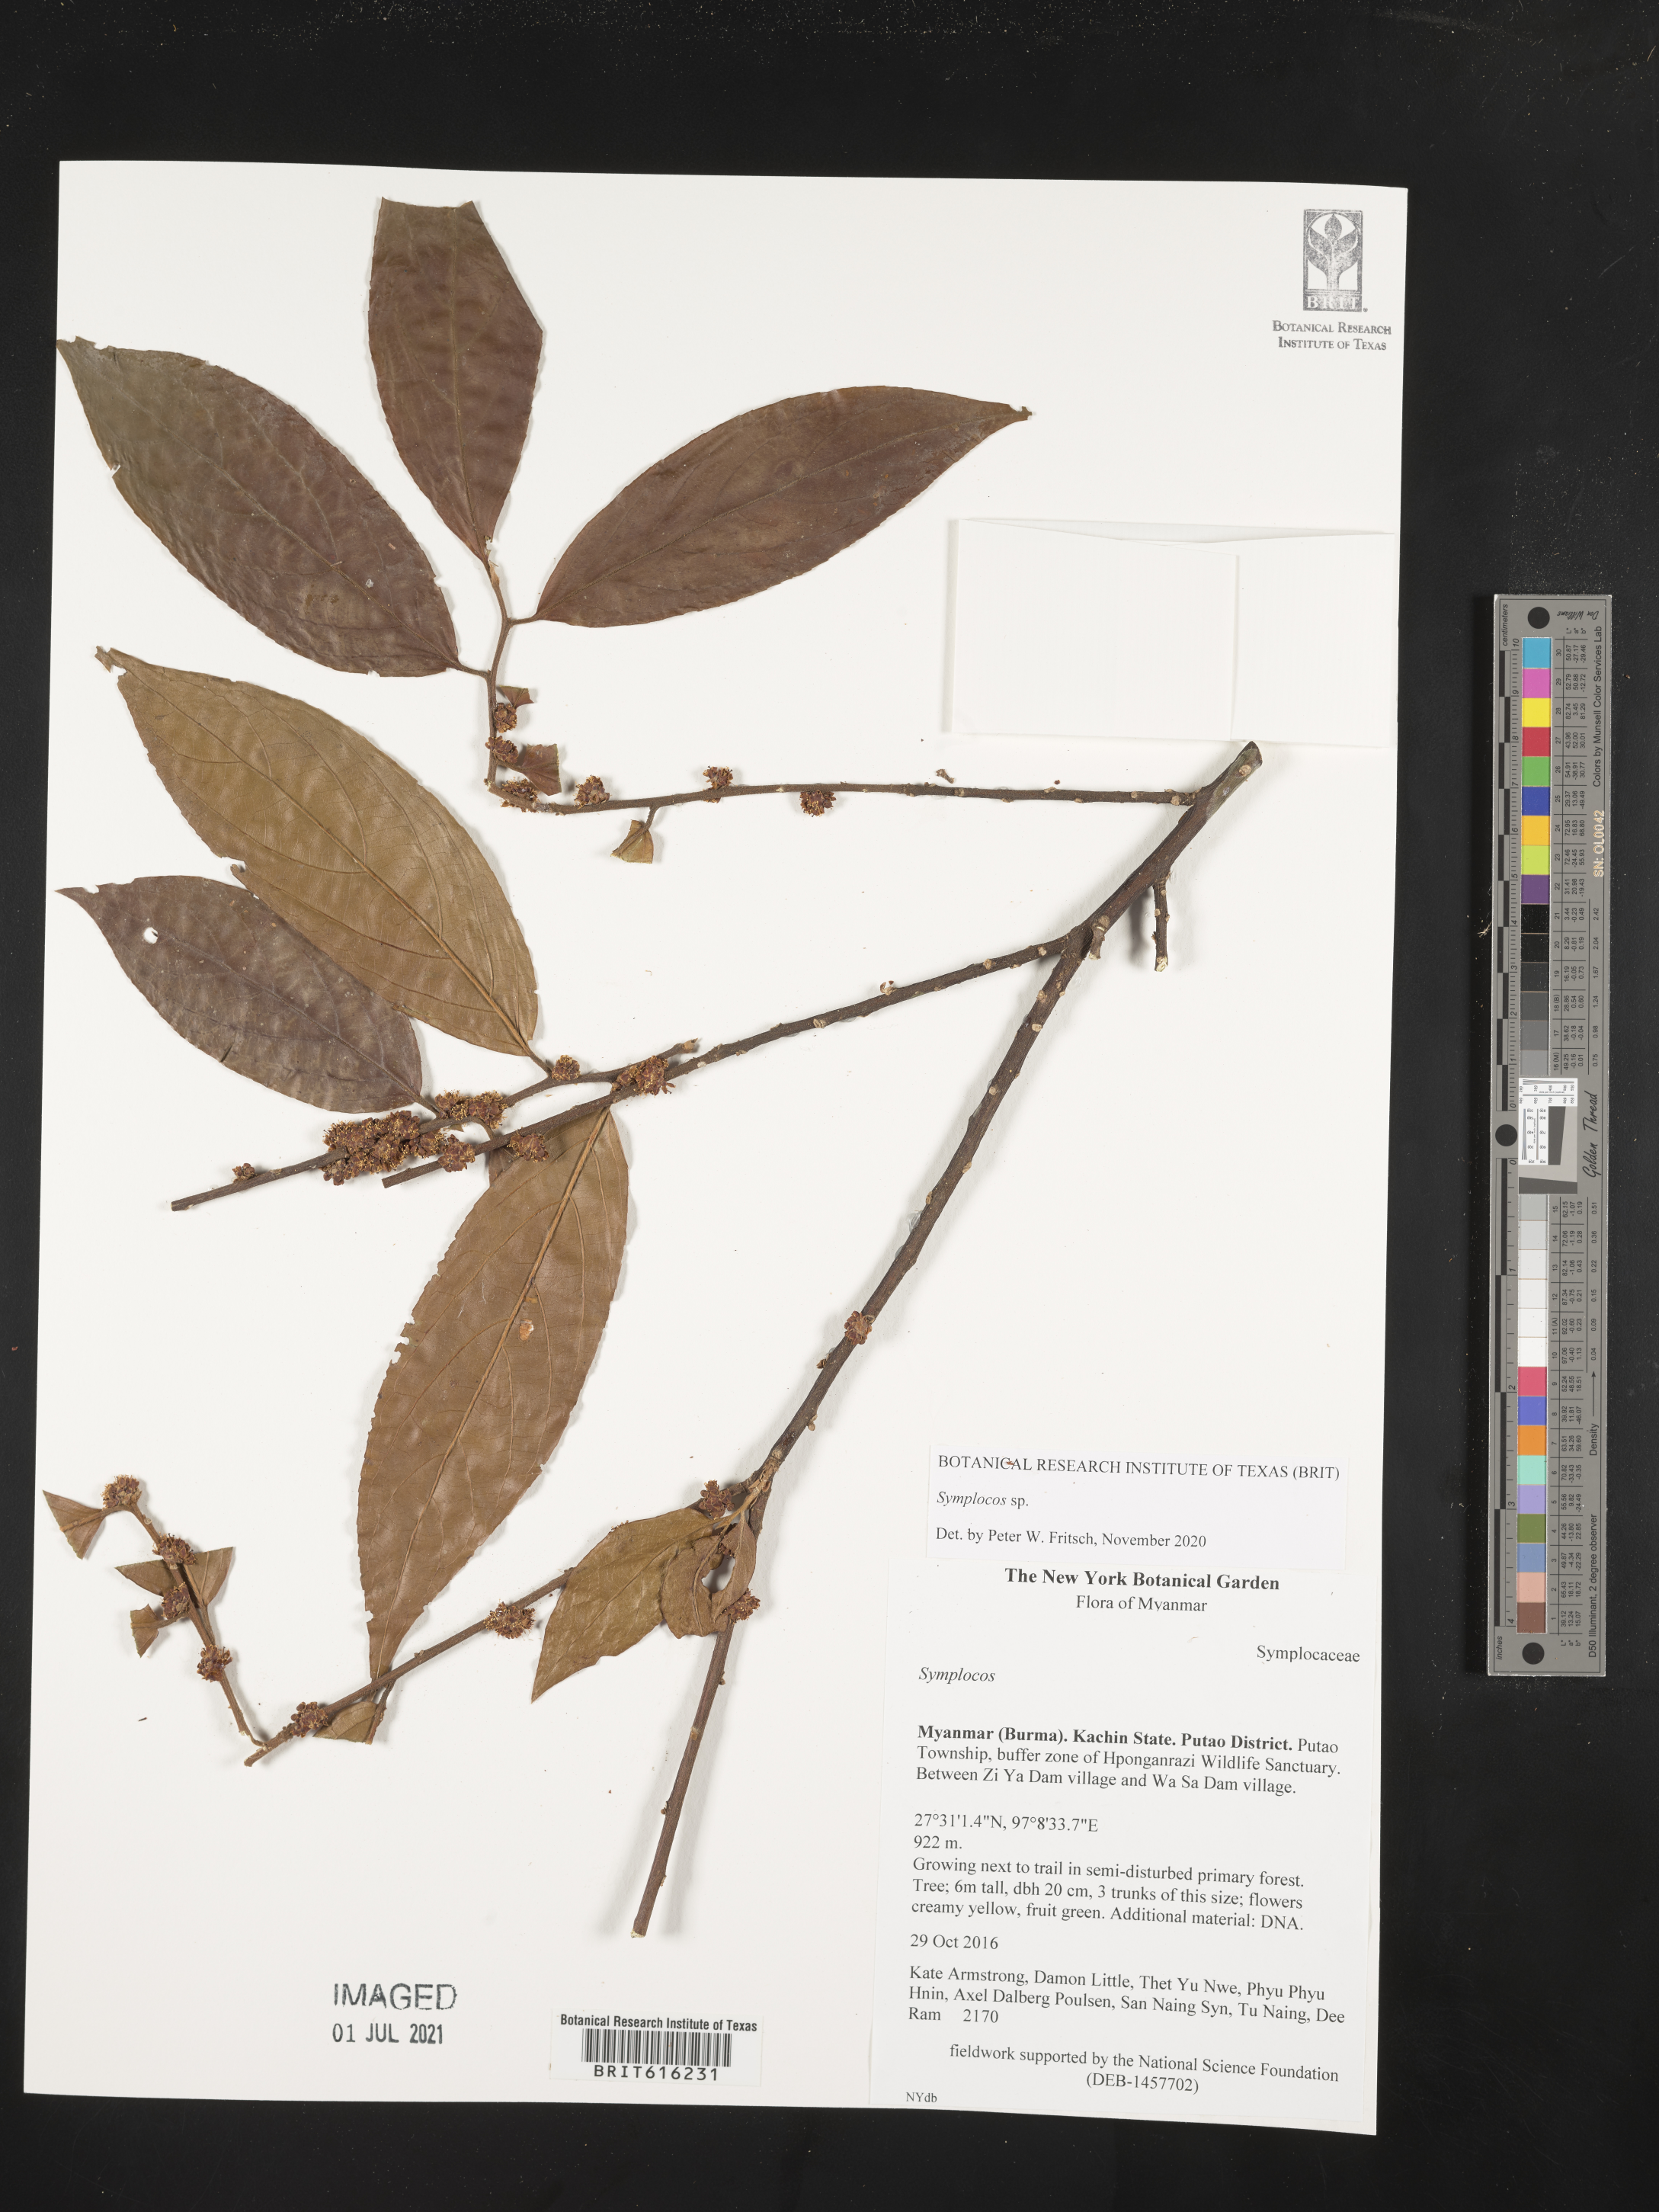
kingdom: Plantae
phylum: Tracheophyta
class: Magnoliopsida
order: Ericales
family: Symplocaceae
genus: Symplocos
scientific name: Symplocos
